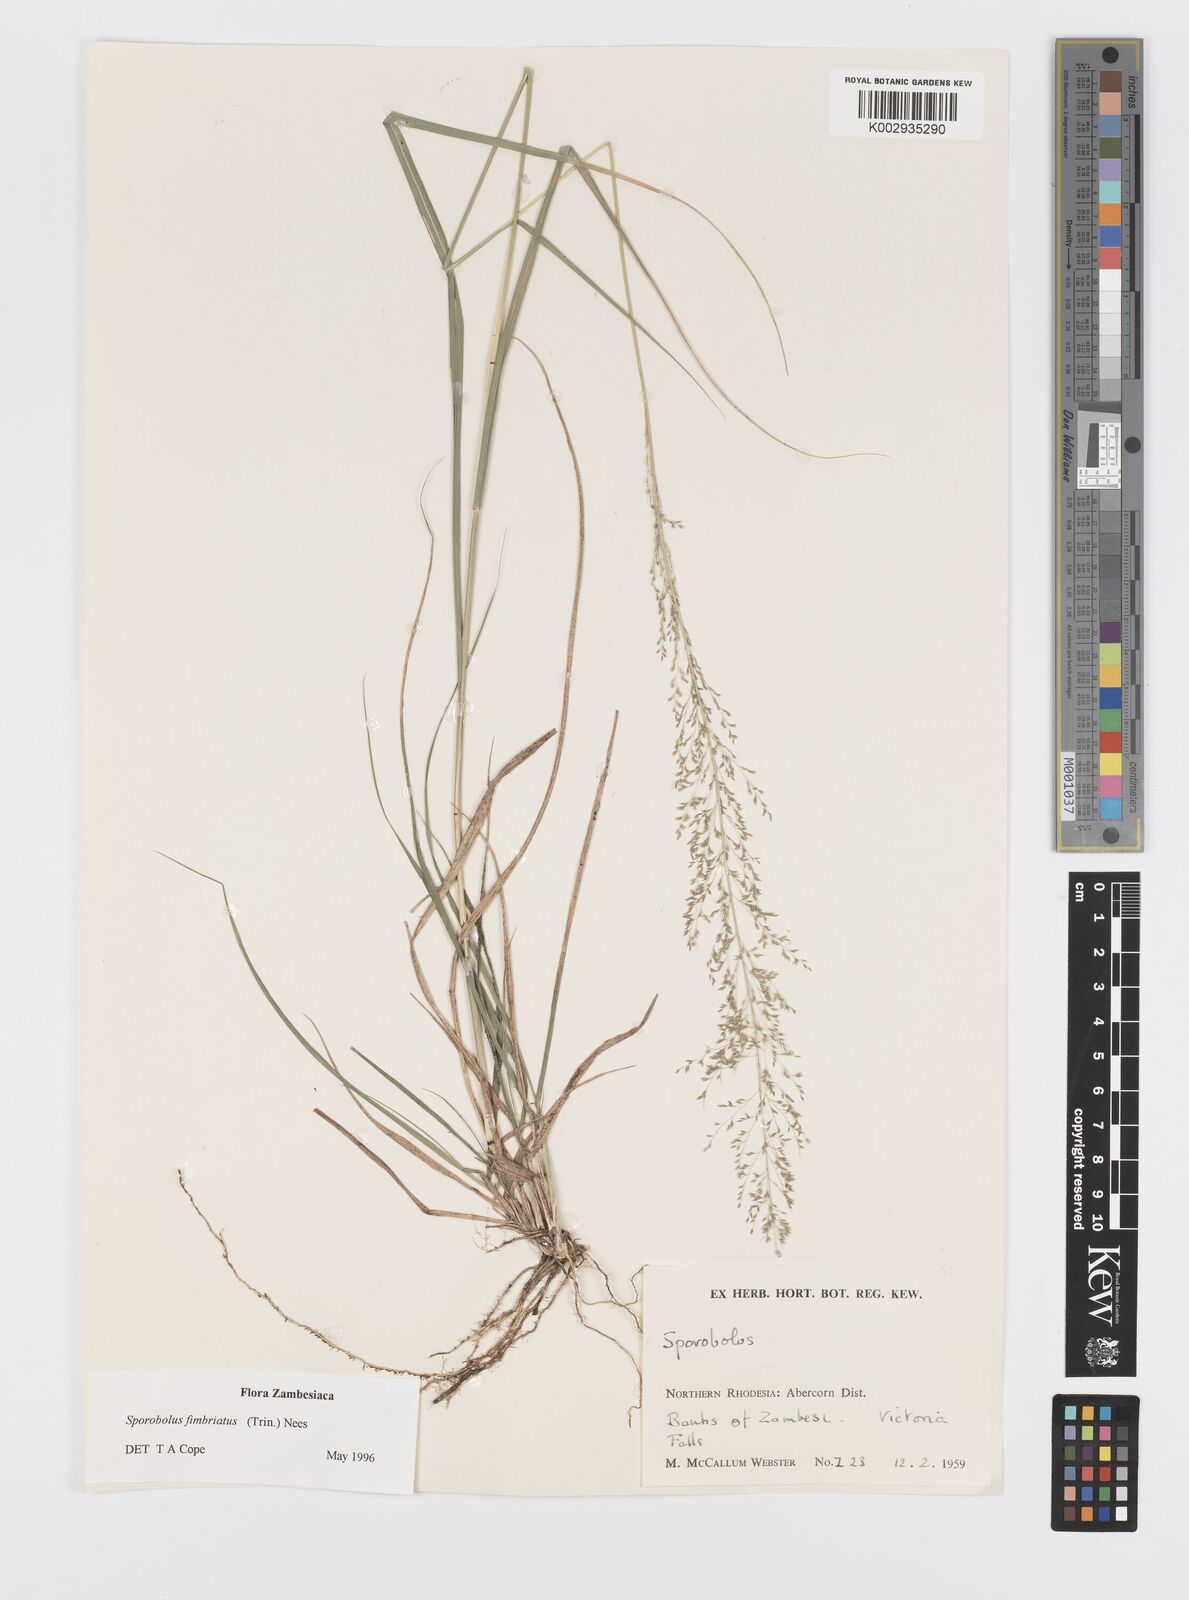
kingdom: Plantae
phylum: Tracheophyta
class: Liliopsida
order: Poales
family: Poaceae
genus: Sporobolus
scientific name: Sporobolus fimbriatus
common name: Fringed dropseed
